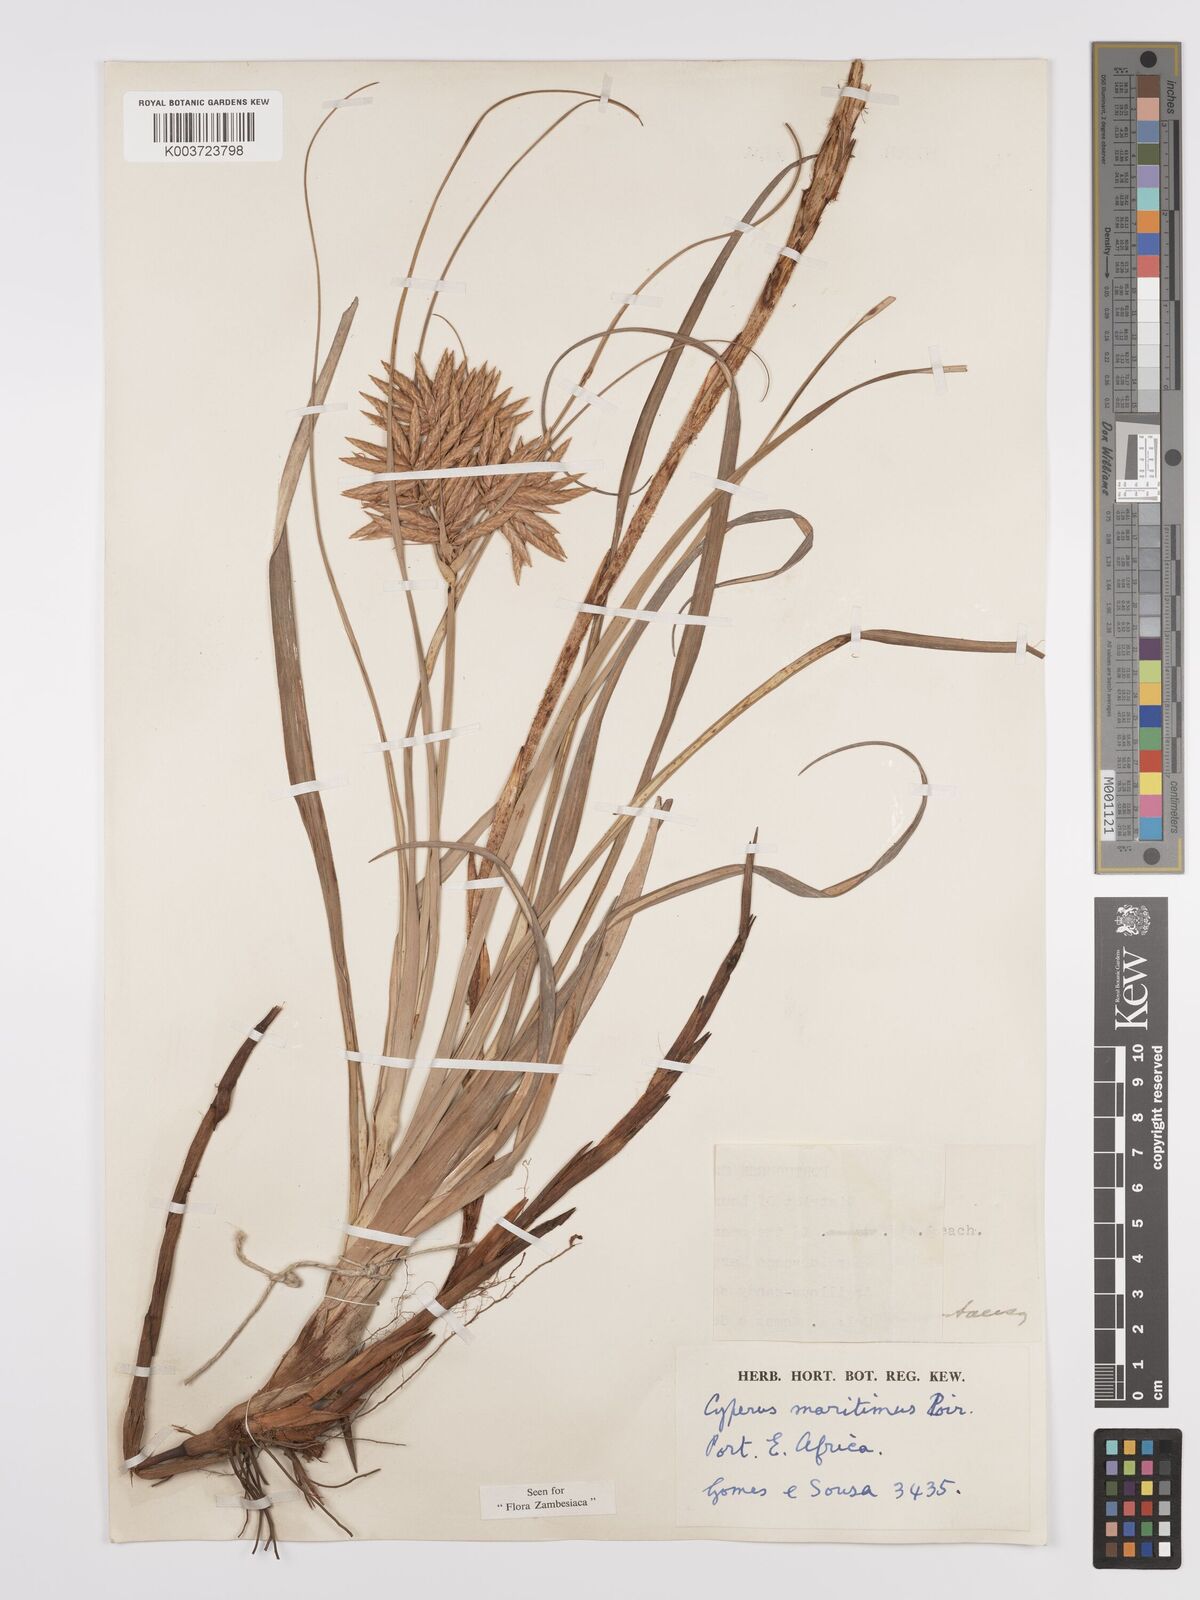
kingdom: Plantae
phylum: Tracheophyta
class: Liliopsida
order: Poales
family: Cyperaceae
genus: Cyperus
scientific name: Cyperus crassipes
